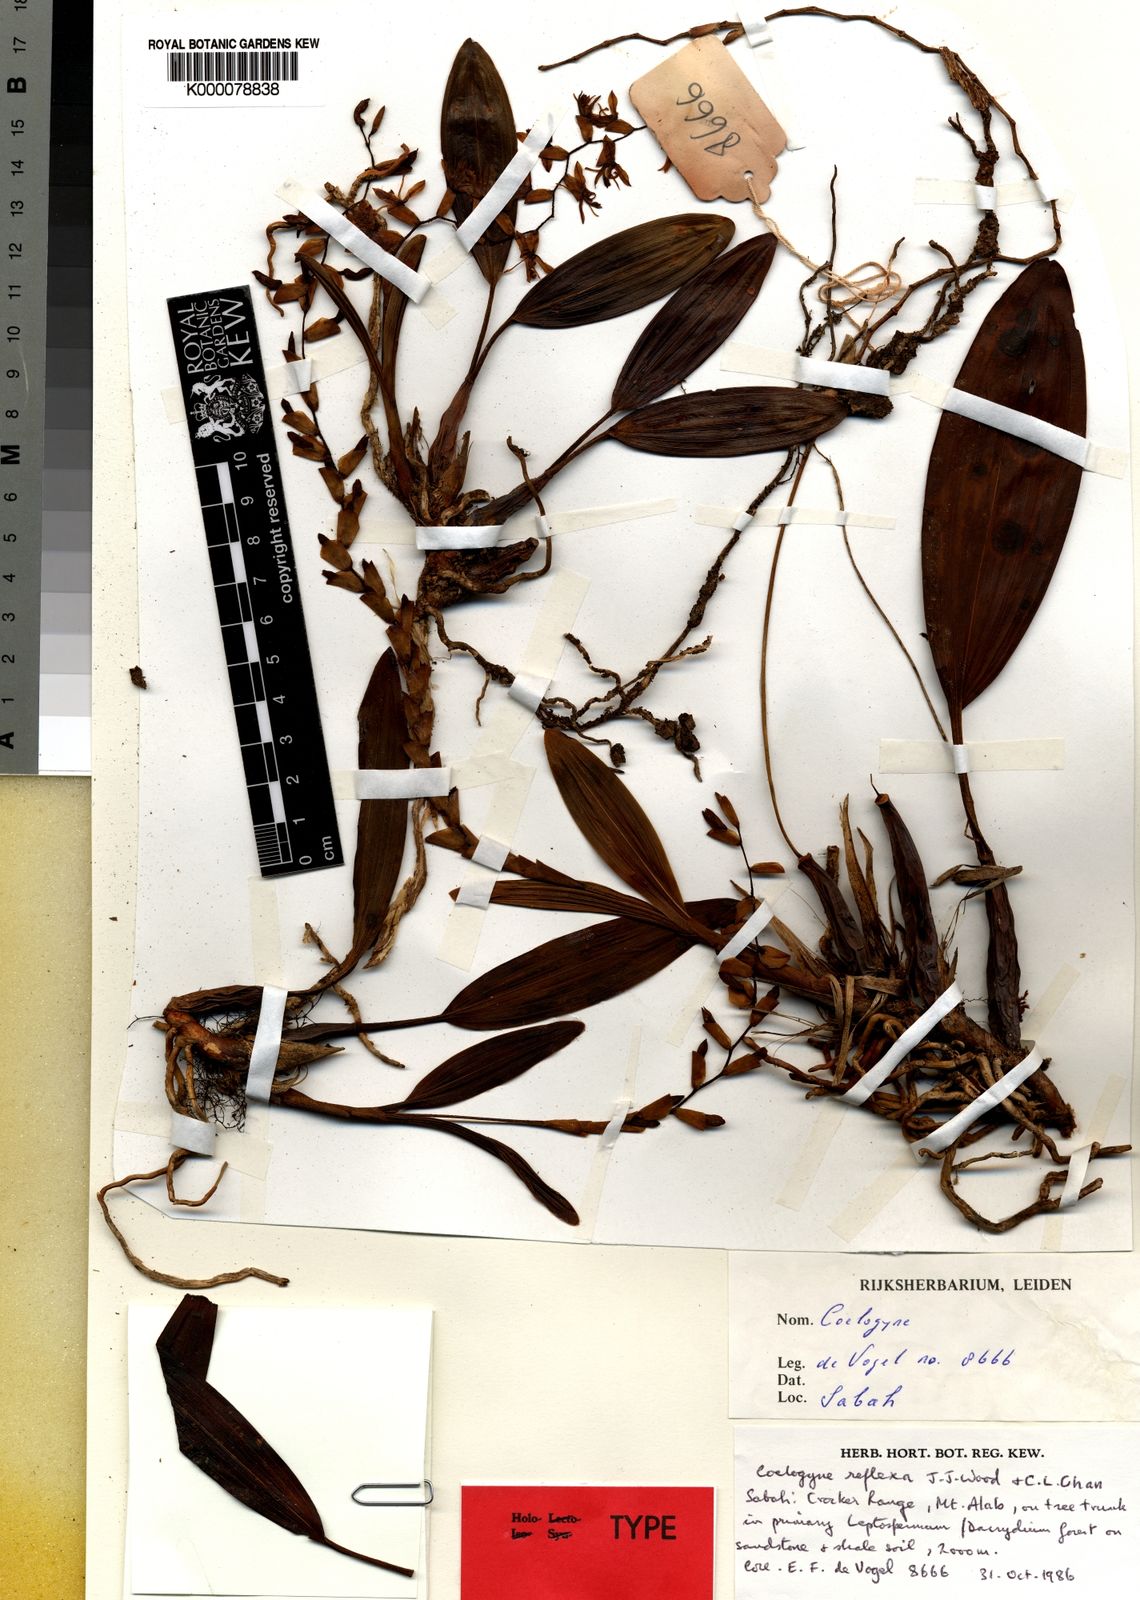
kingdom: Plantae
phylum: Tracheophyta
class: Liliopsida
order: Asparagales
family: Orchidaceae
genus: Coelogyne
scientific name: Coelogyne genuflexa
